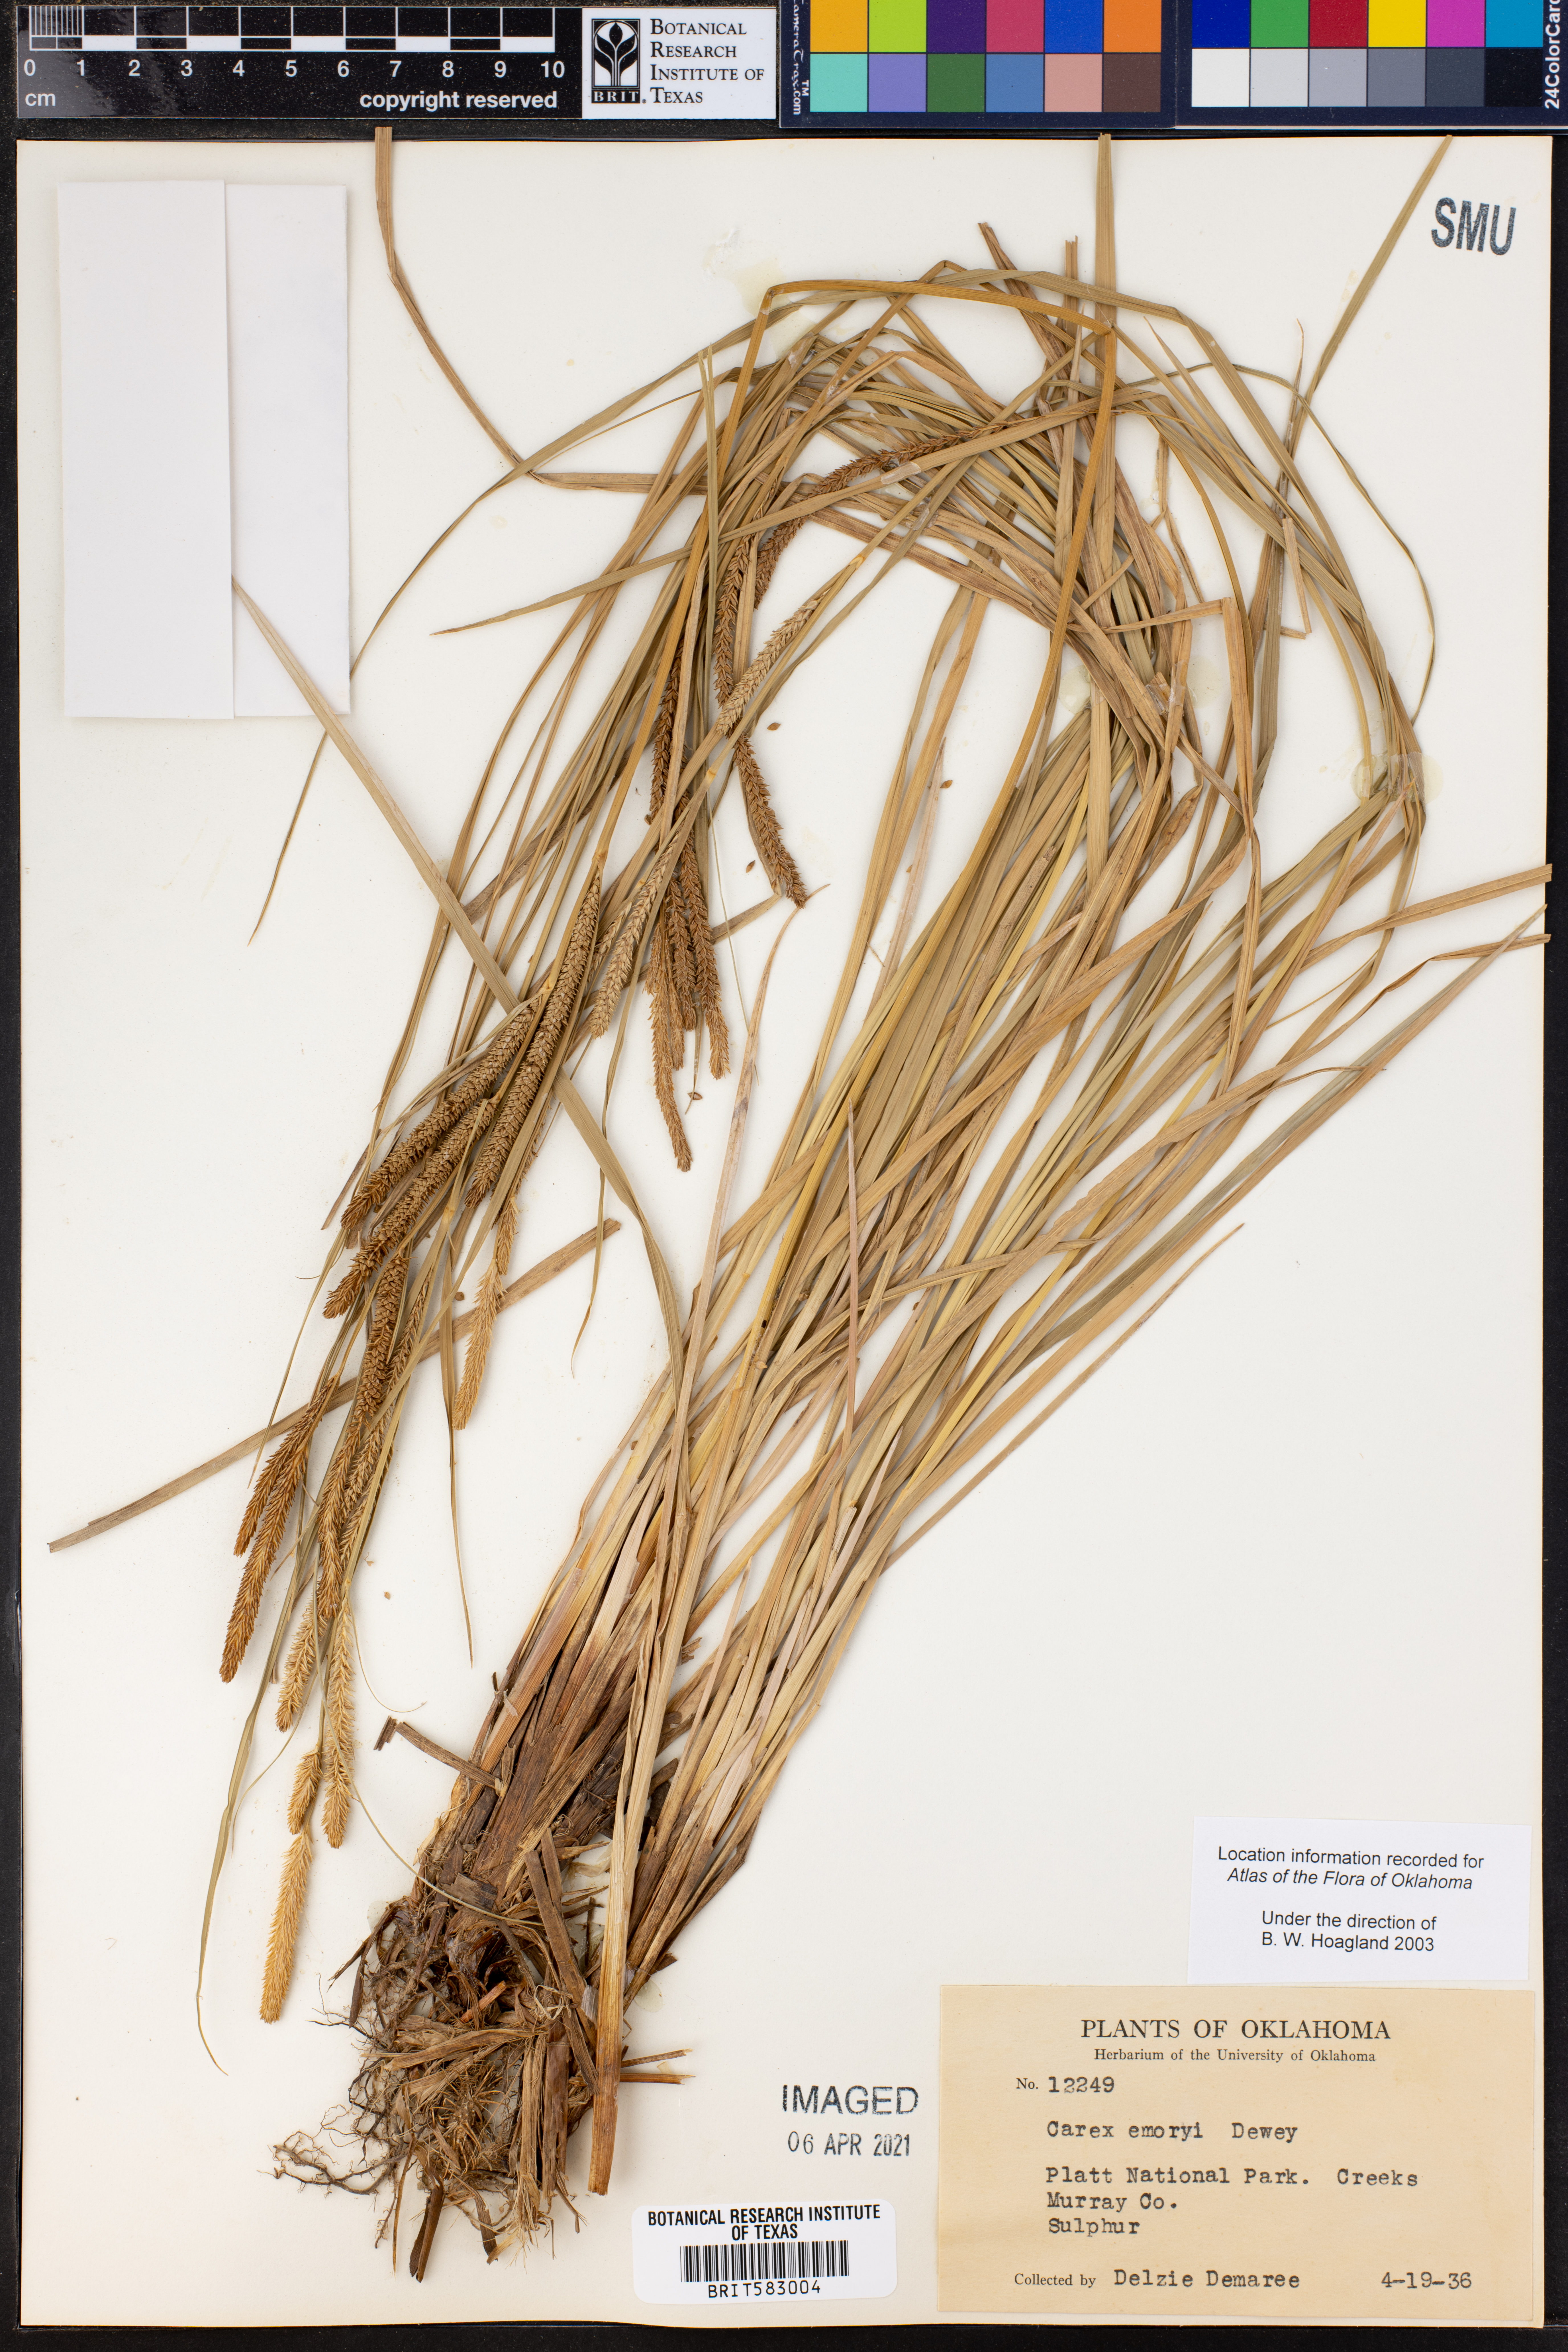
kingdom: Plantae
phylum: Tracheophyta
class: Liliopsida
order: Poales
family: Cyperaceae
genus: Carex
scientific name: Carex emoryi
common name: Emory's sedge
